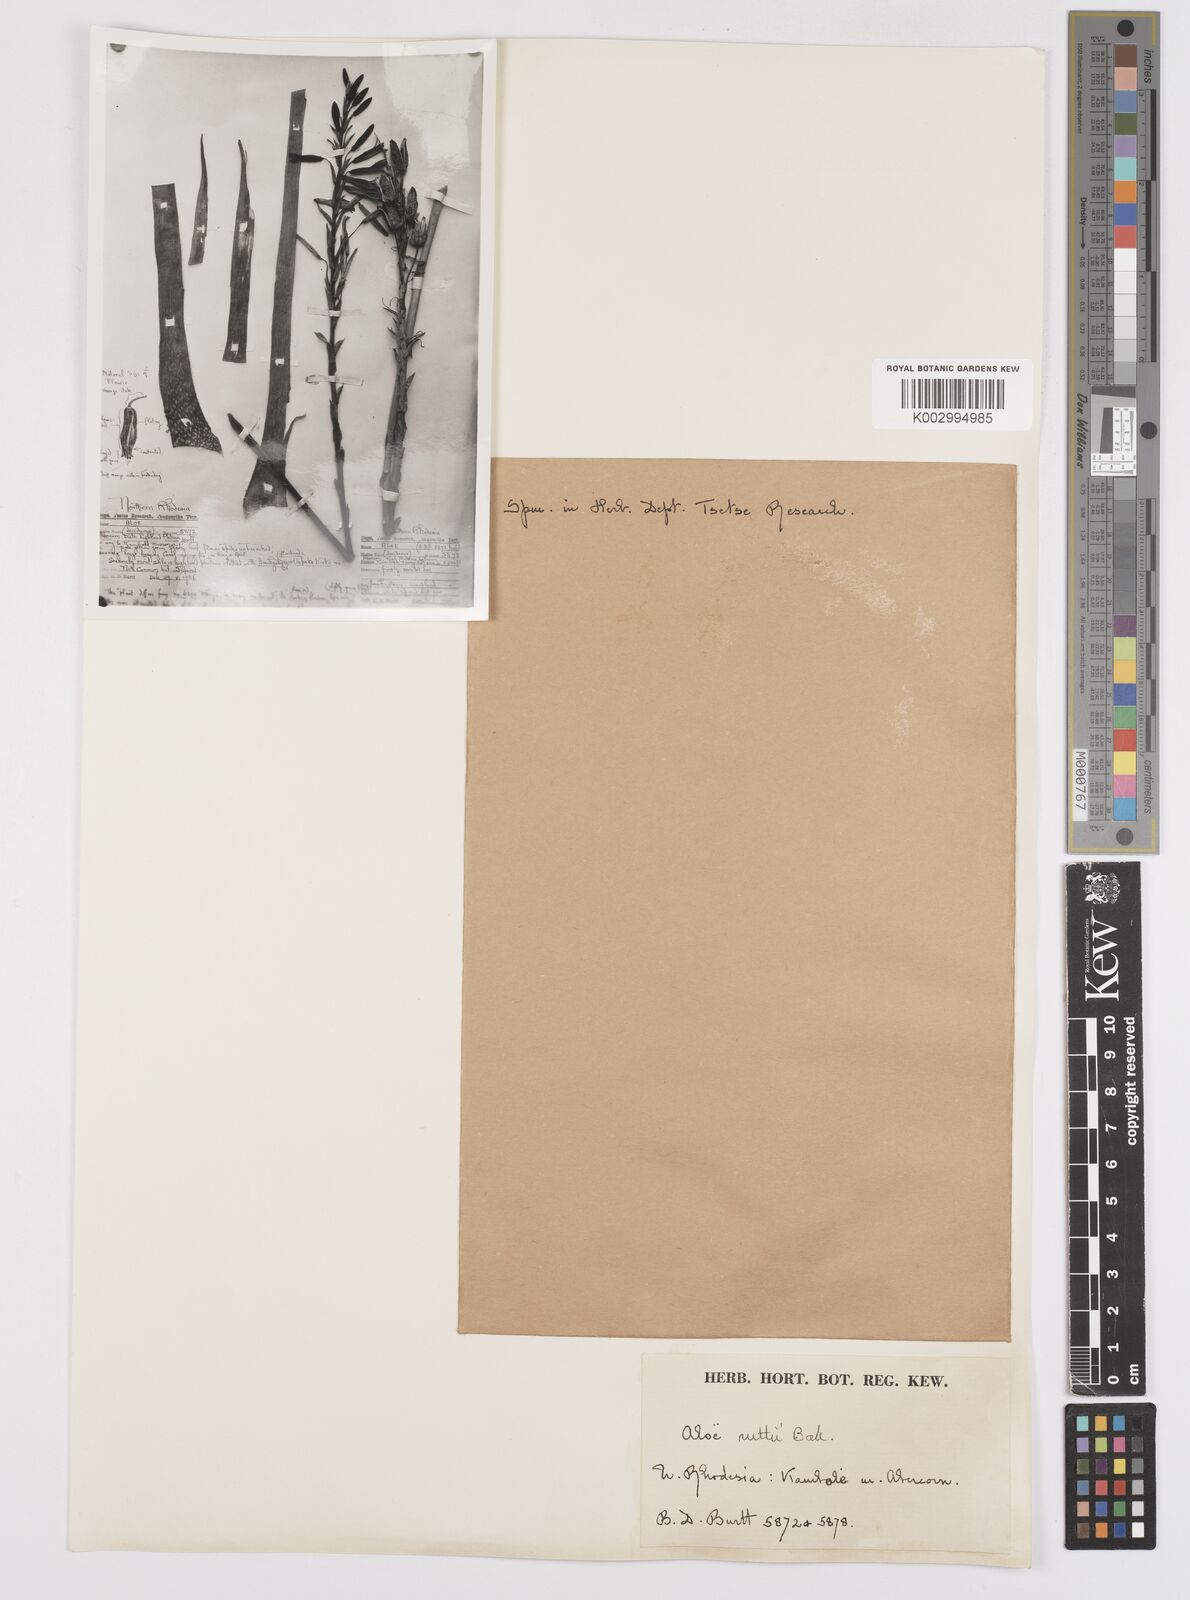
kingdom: Plantae
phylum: Tracheophyta
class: Liliopsida
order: Asparagales
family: Asphodelaceae
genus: Aloe
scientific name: Aloe nuttii
